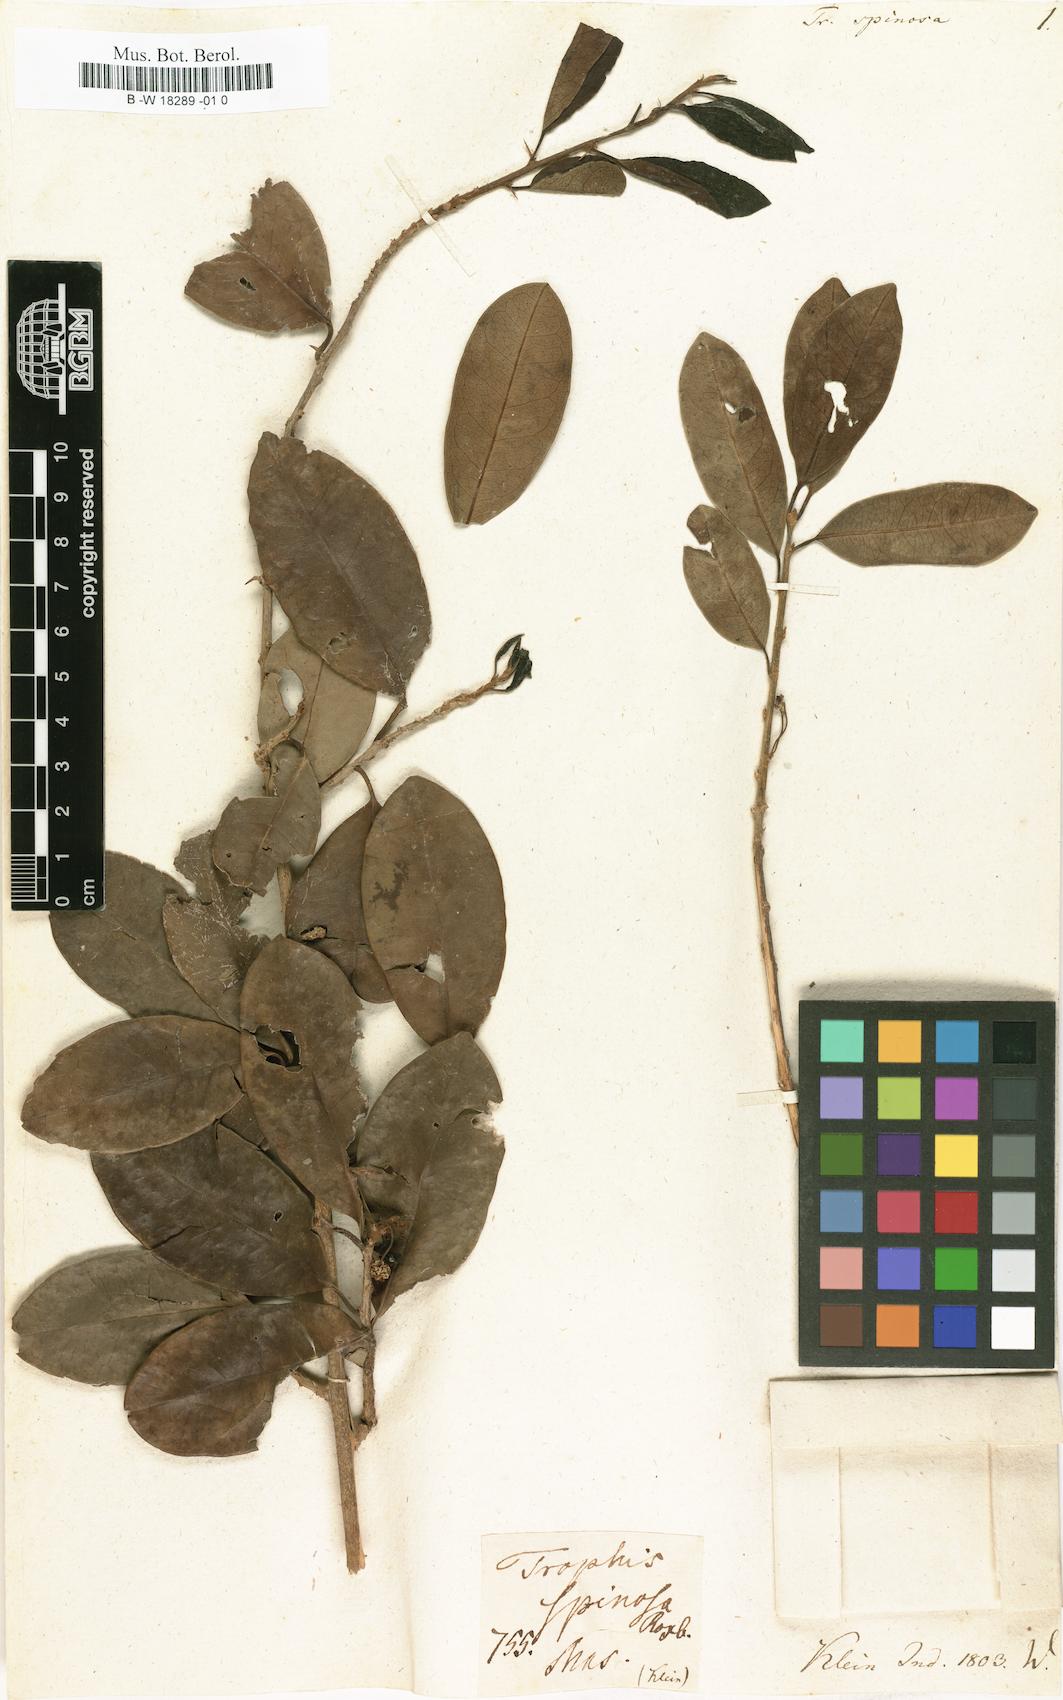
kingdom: Plantae
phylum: Tracheophyta
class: Magnoliopsida
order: Rosales
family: Moraceae
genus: Maclura
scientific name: Maclura spinosa
